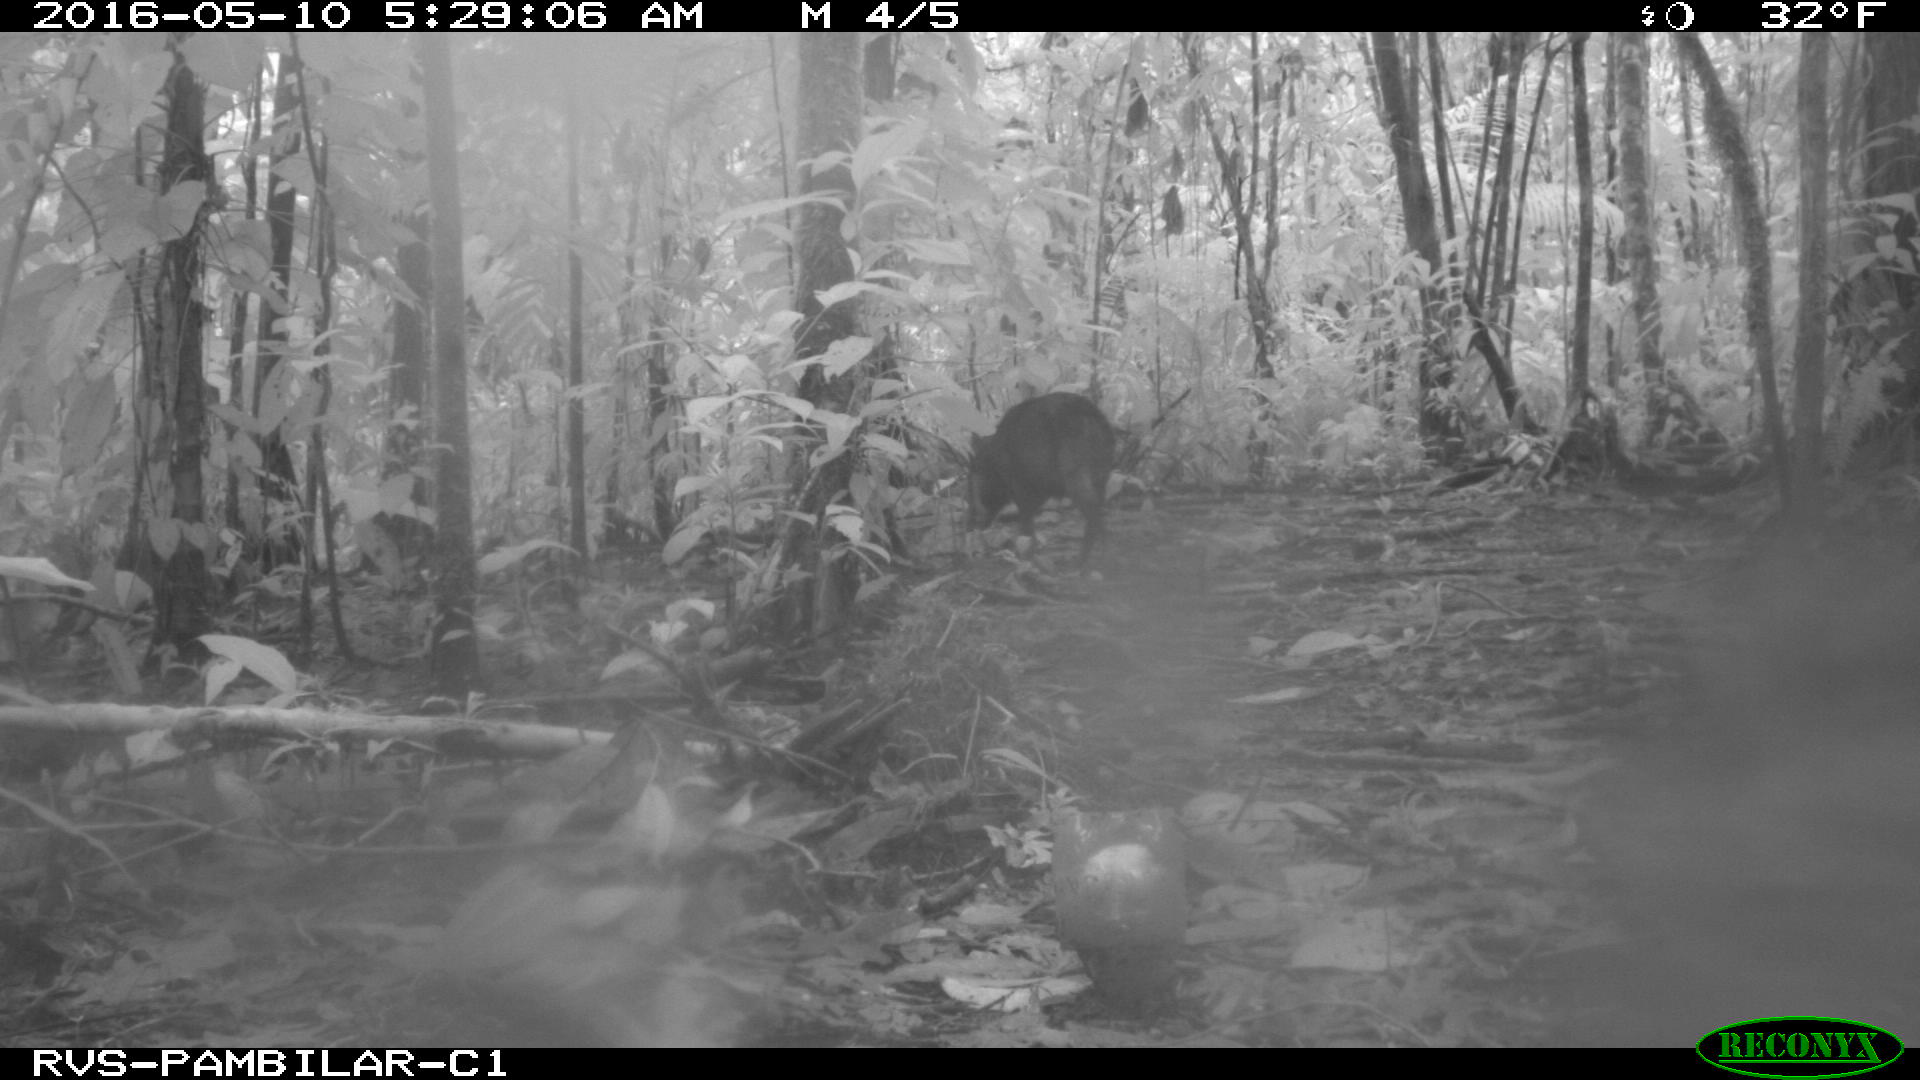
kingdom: Animalia
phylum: Chordata
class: Mammalia
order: Artiodactyla
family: Tayassuidae
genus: Tayassu
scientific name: Tayassu pecari
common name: White-lipped peccary
